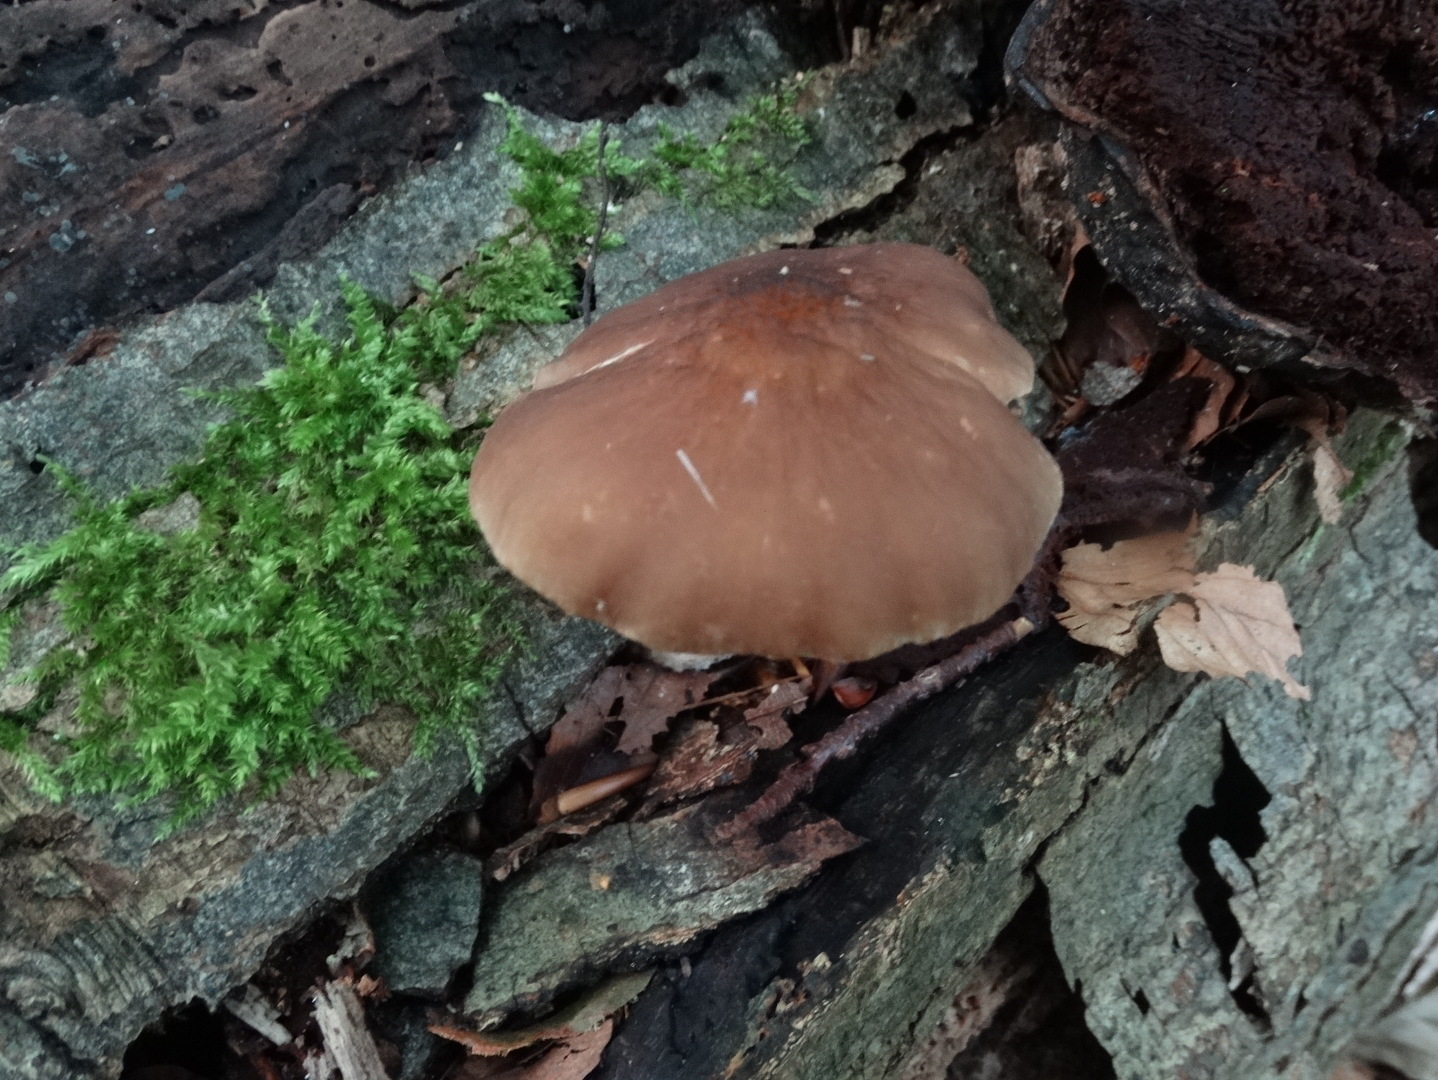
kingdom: Fungi
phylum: Basidiomycota
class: Agaricomycetes
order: Agaricales
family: Pluteaceae
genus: Pluteus
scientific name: Pluteus phlebophorus
